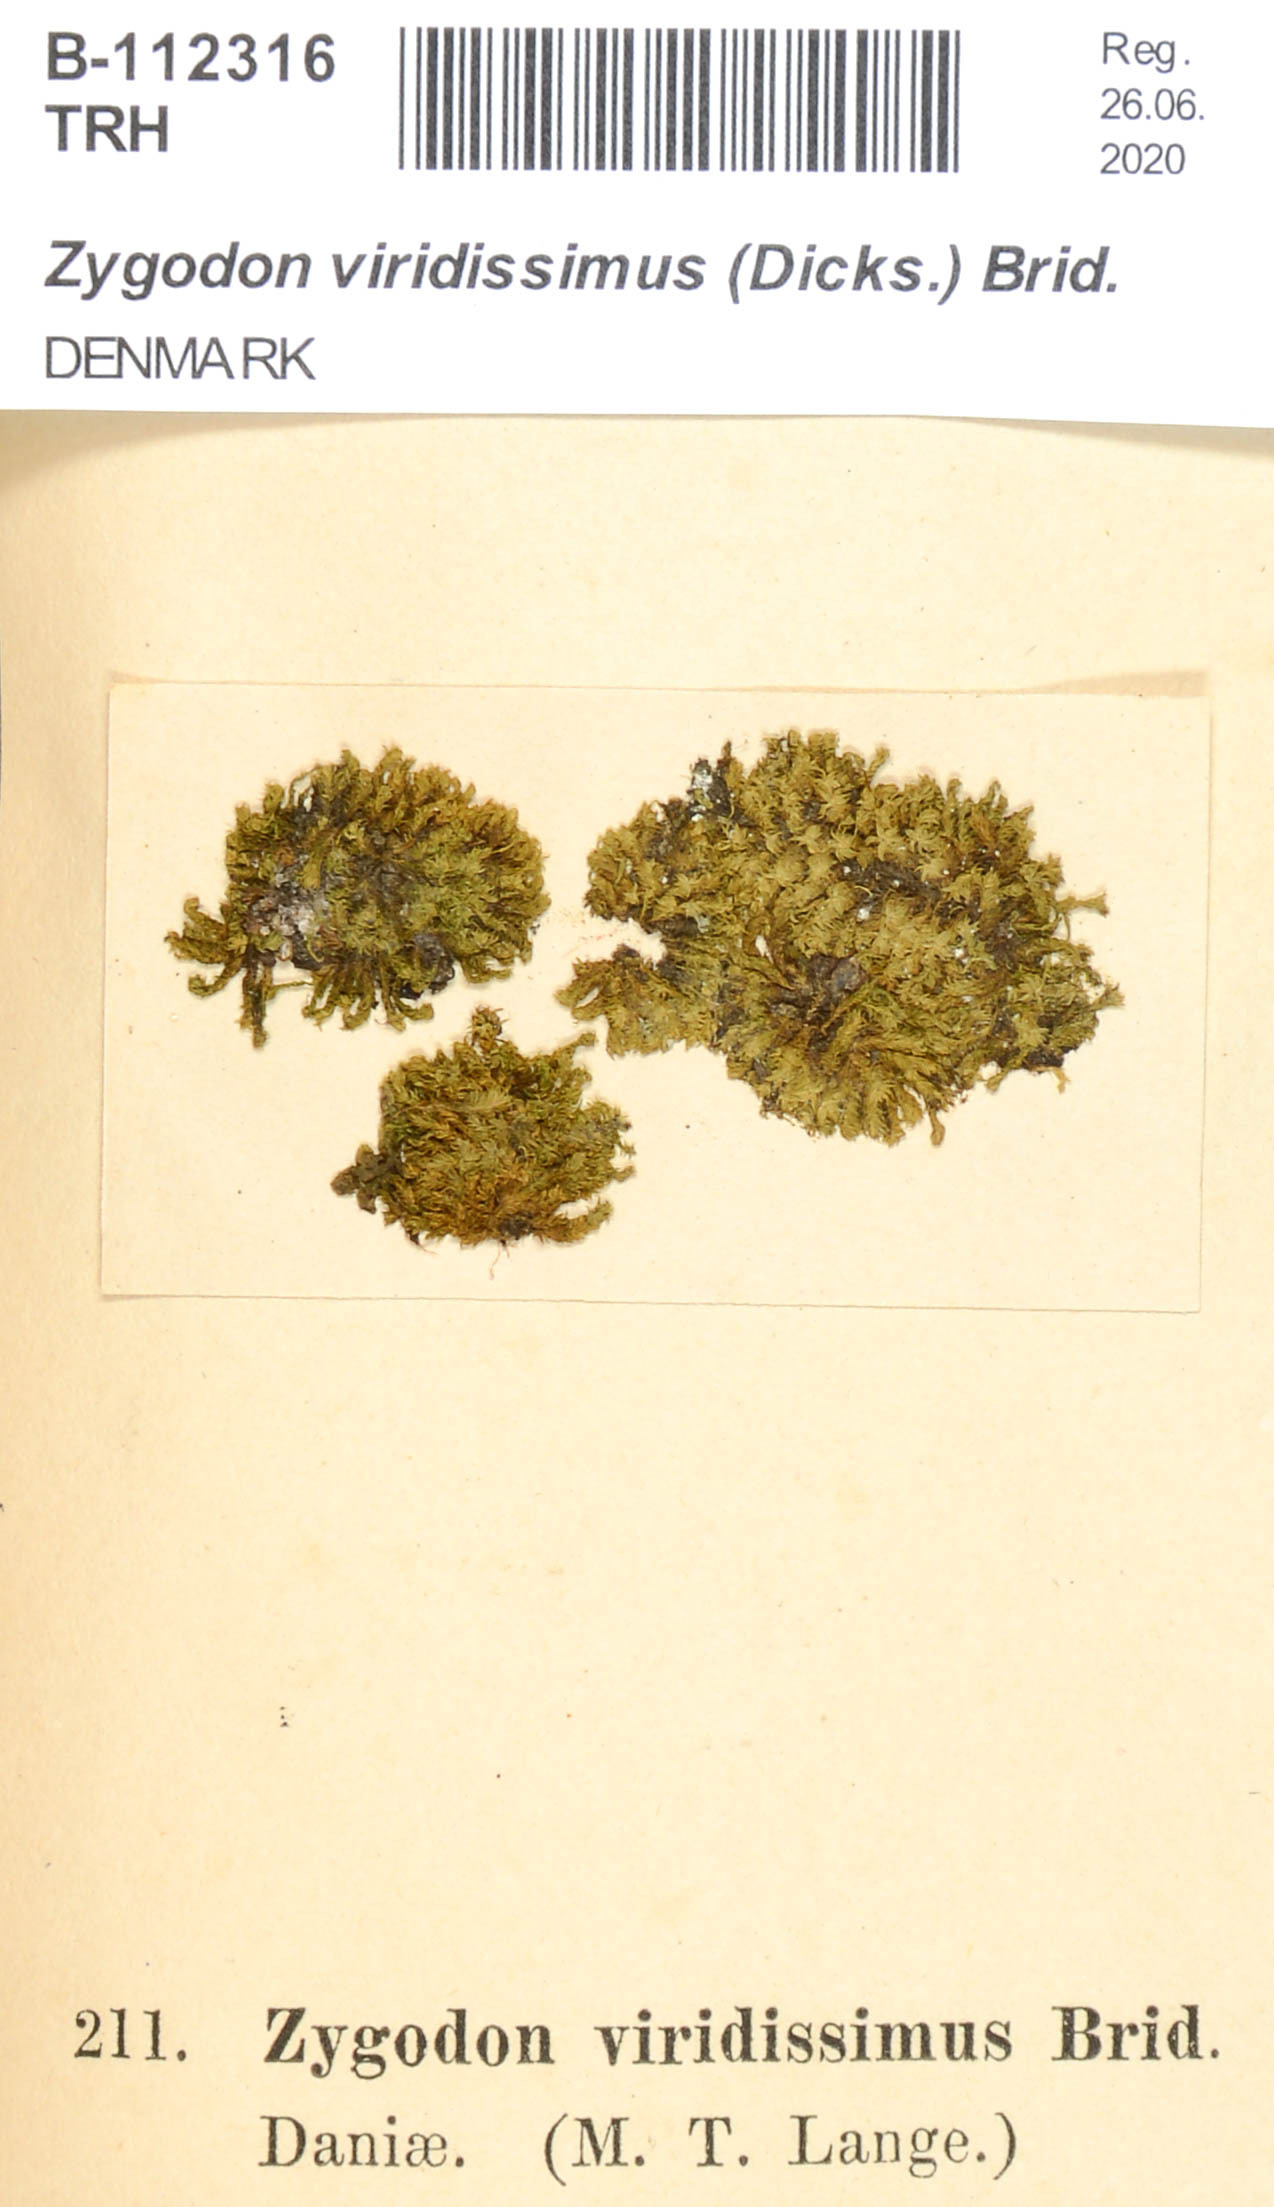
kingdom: Plantae
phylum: Bryophyta
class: Bryopsida
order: Orthotrichales
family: Orthotrichaceae
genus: Zygodon
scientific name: Zygodon viridissimus
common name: Green yoke moss
